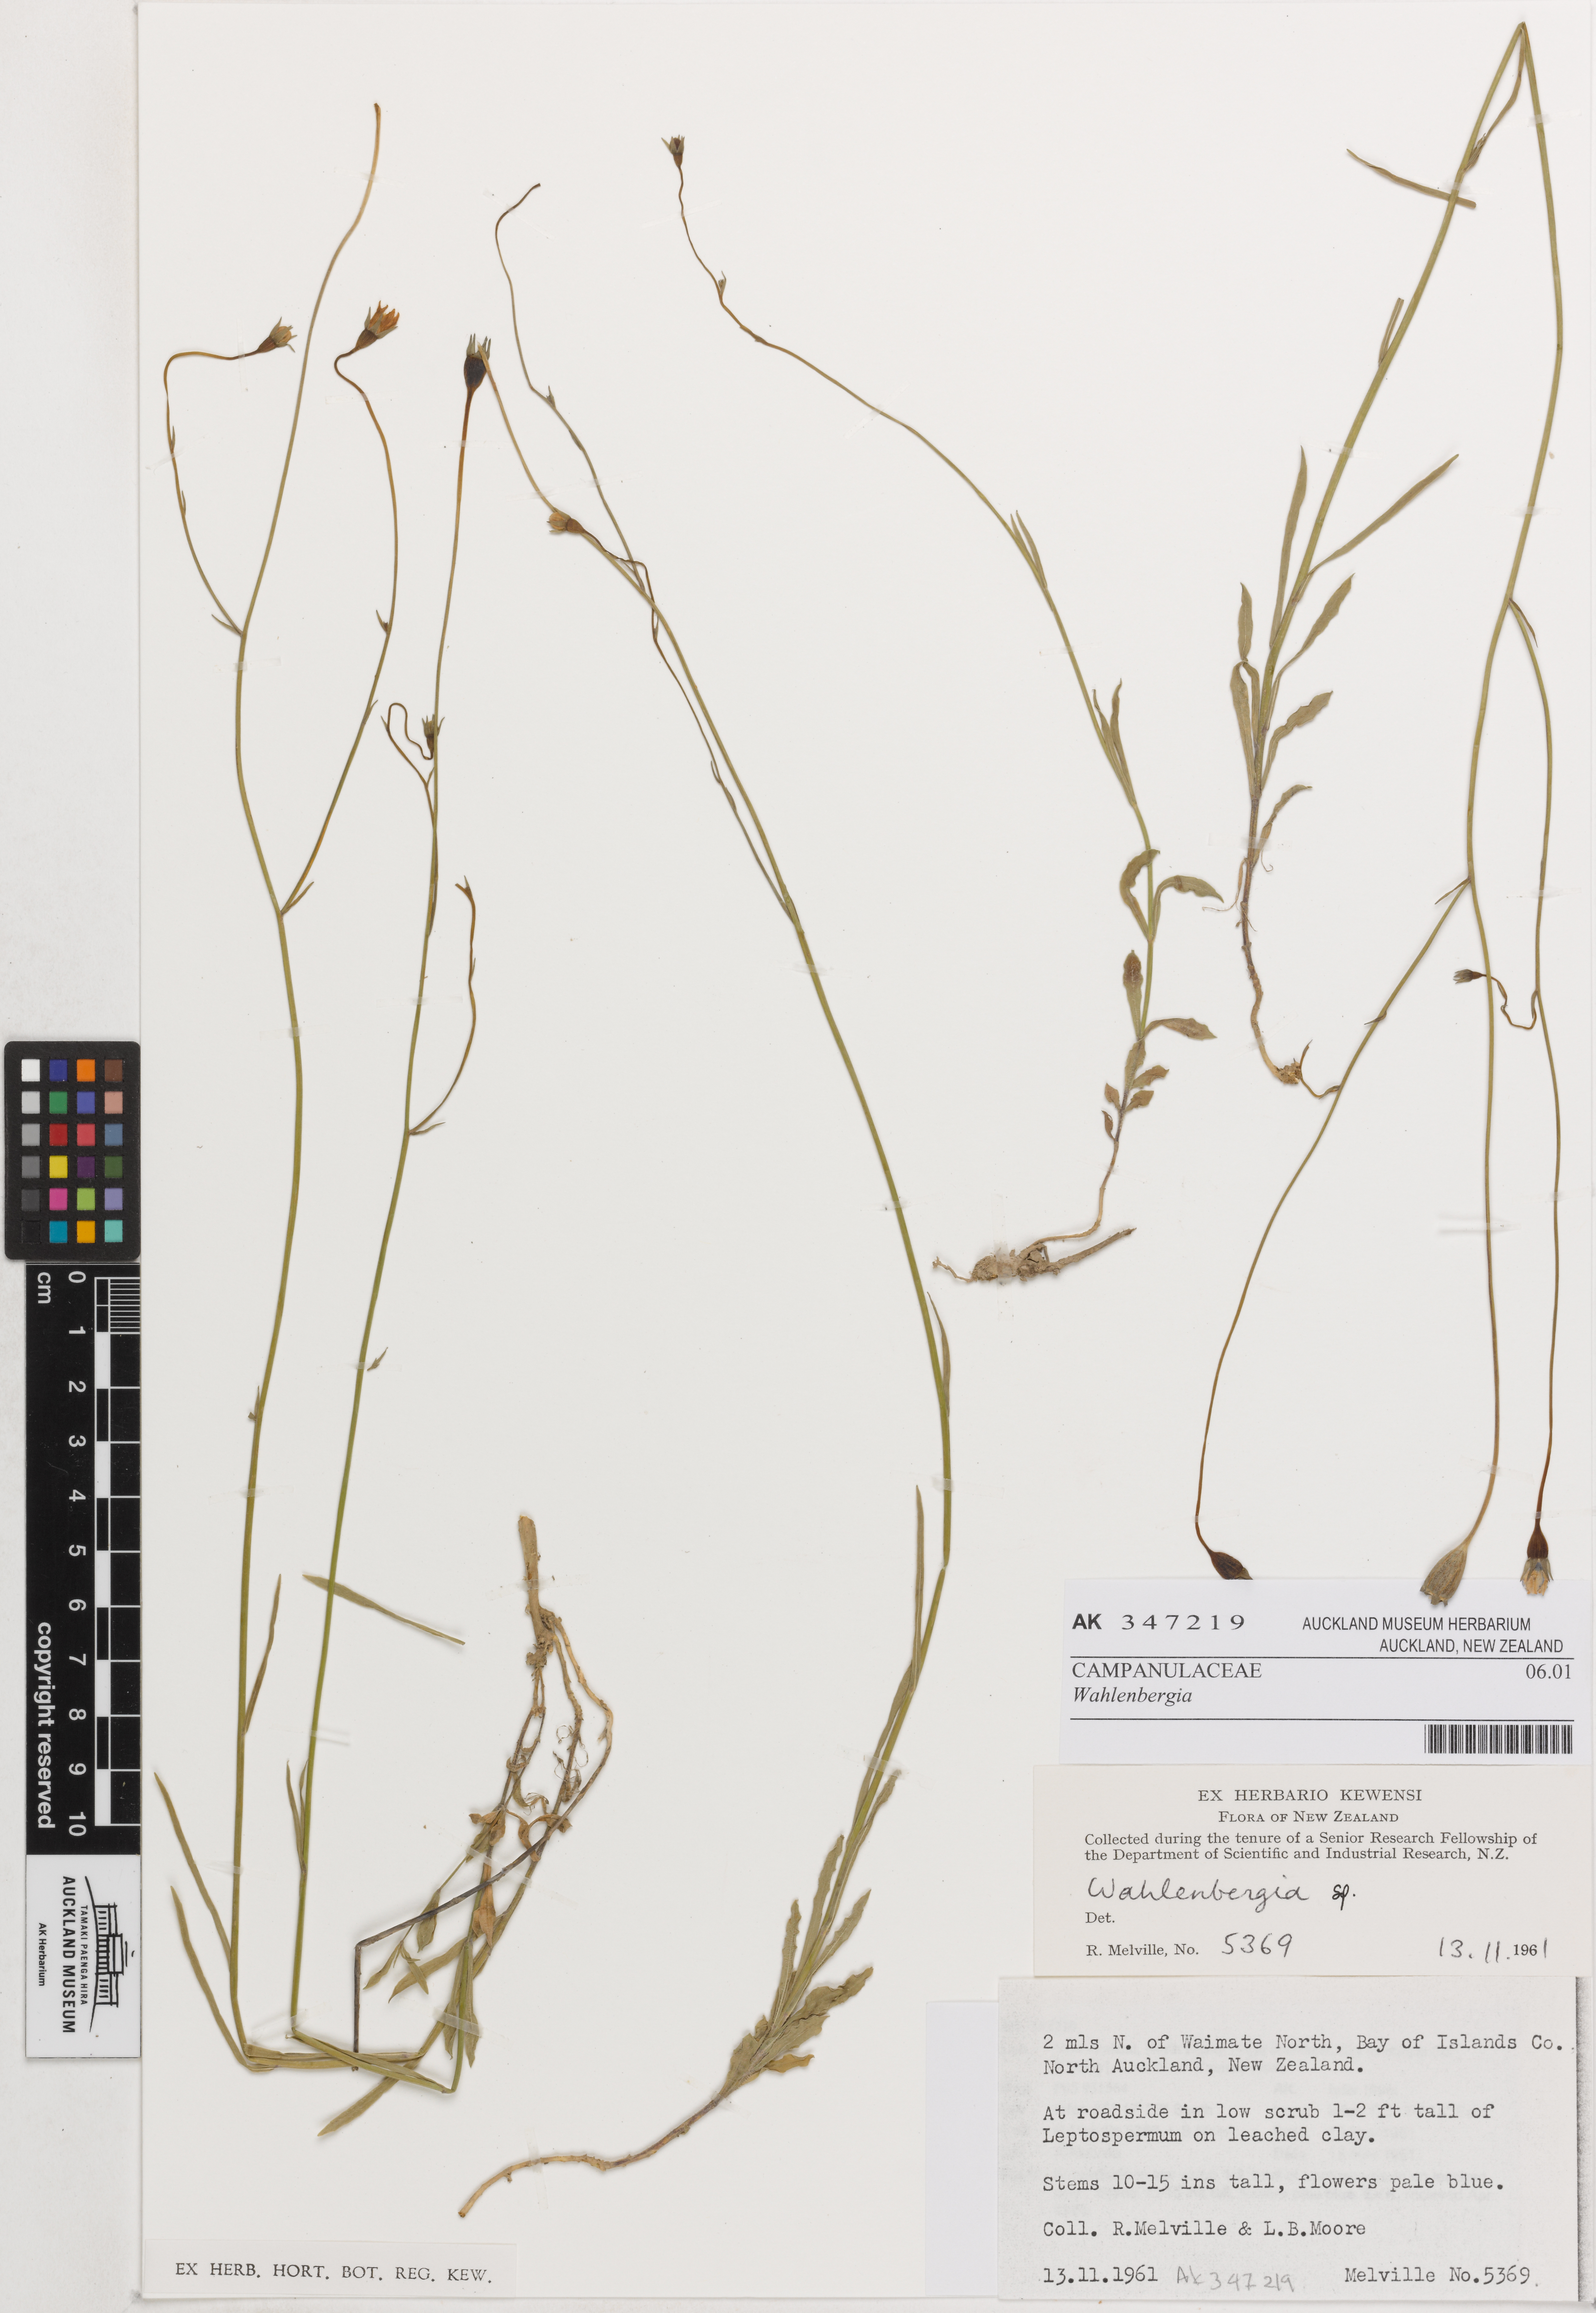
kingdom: Plantae
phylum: Tracheophyta
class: Magnoliopsida
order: Asterales
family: Campanulaceae
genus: Wahlenbergia
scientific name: Wahlenbergia
